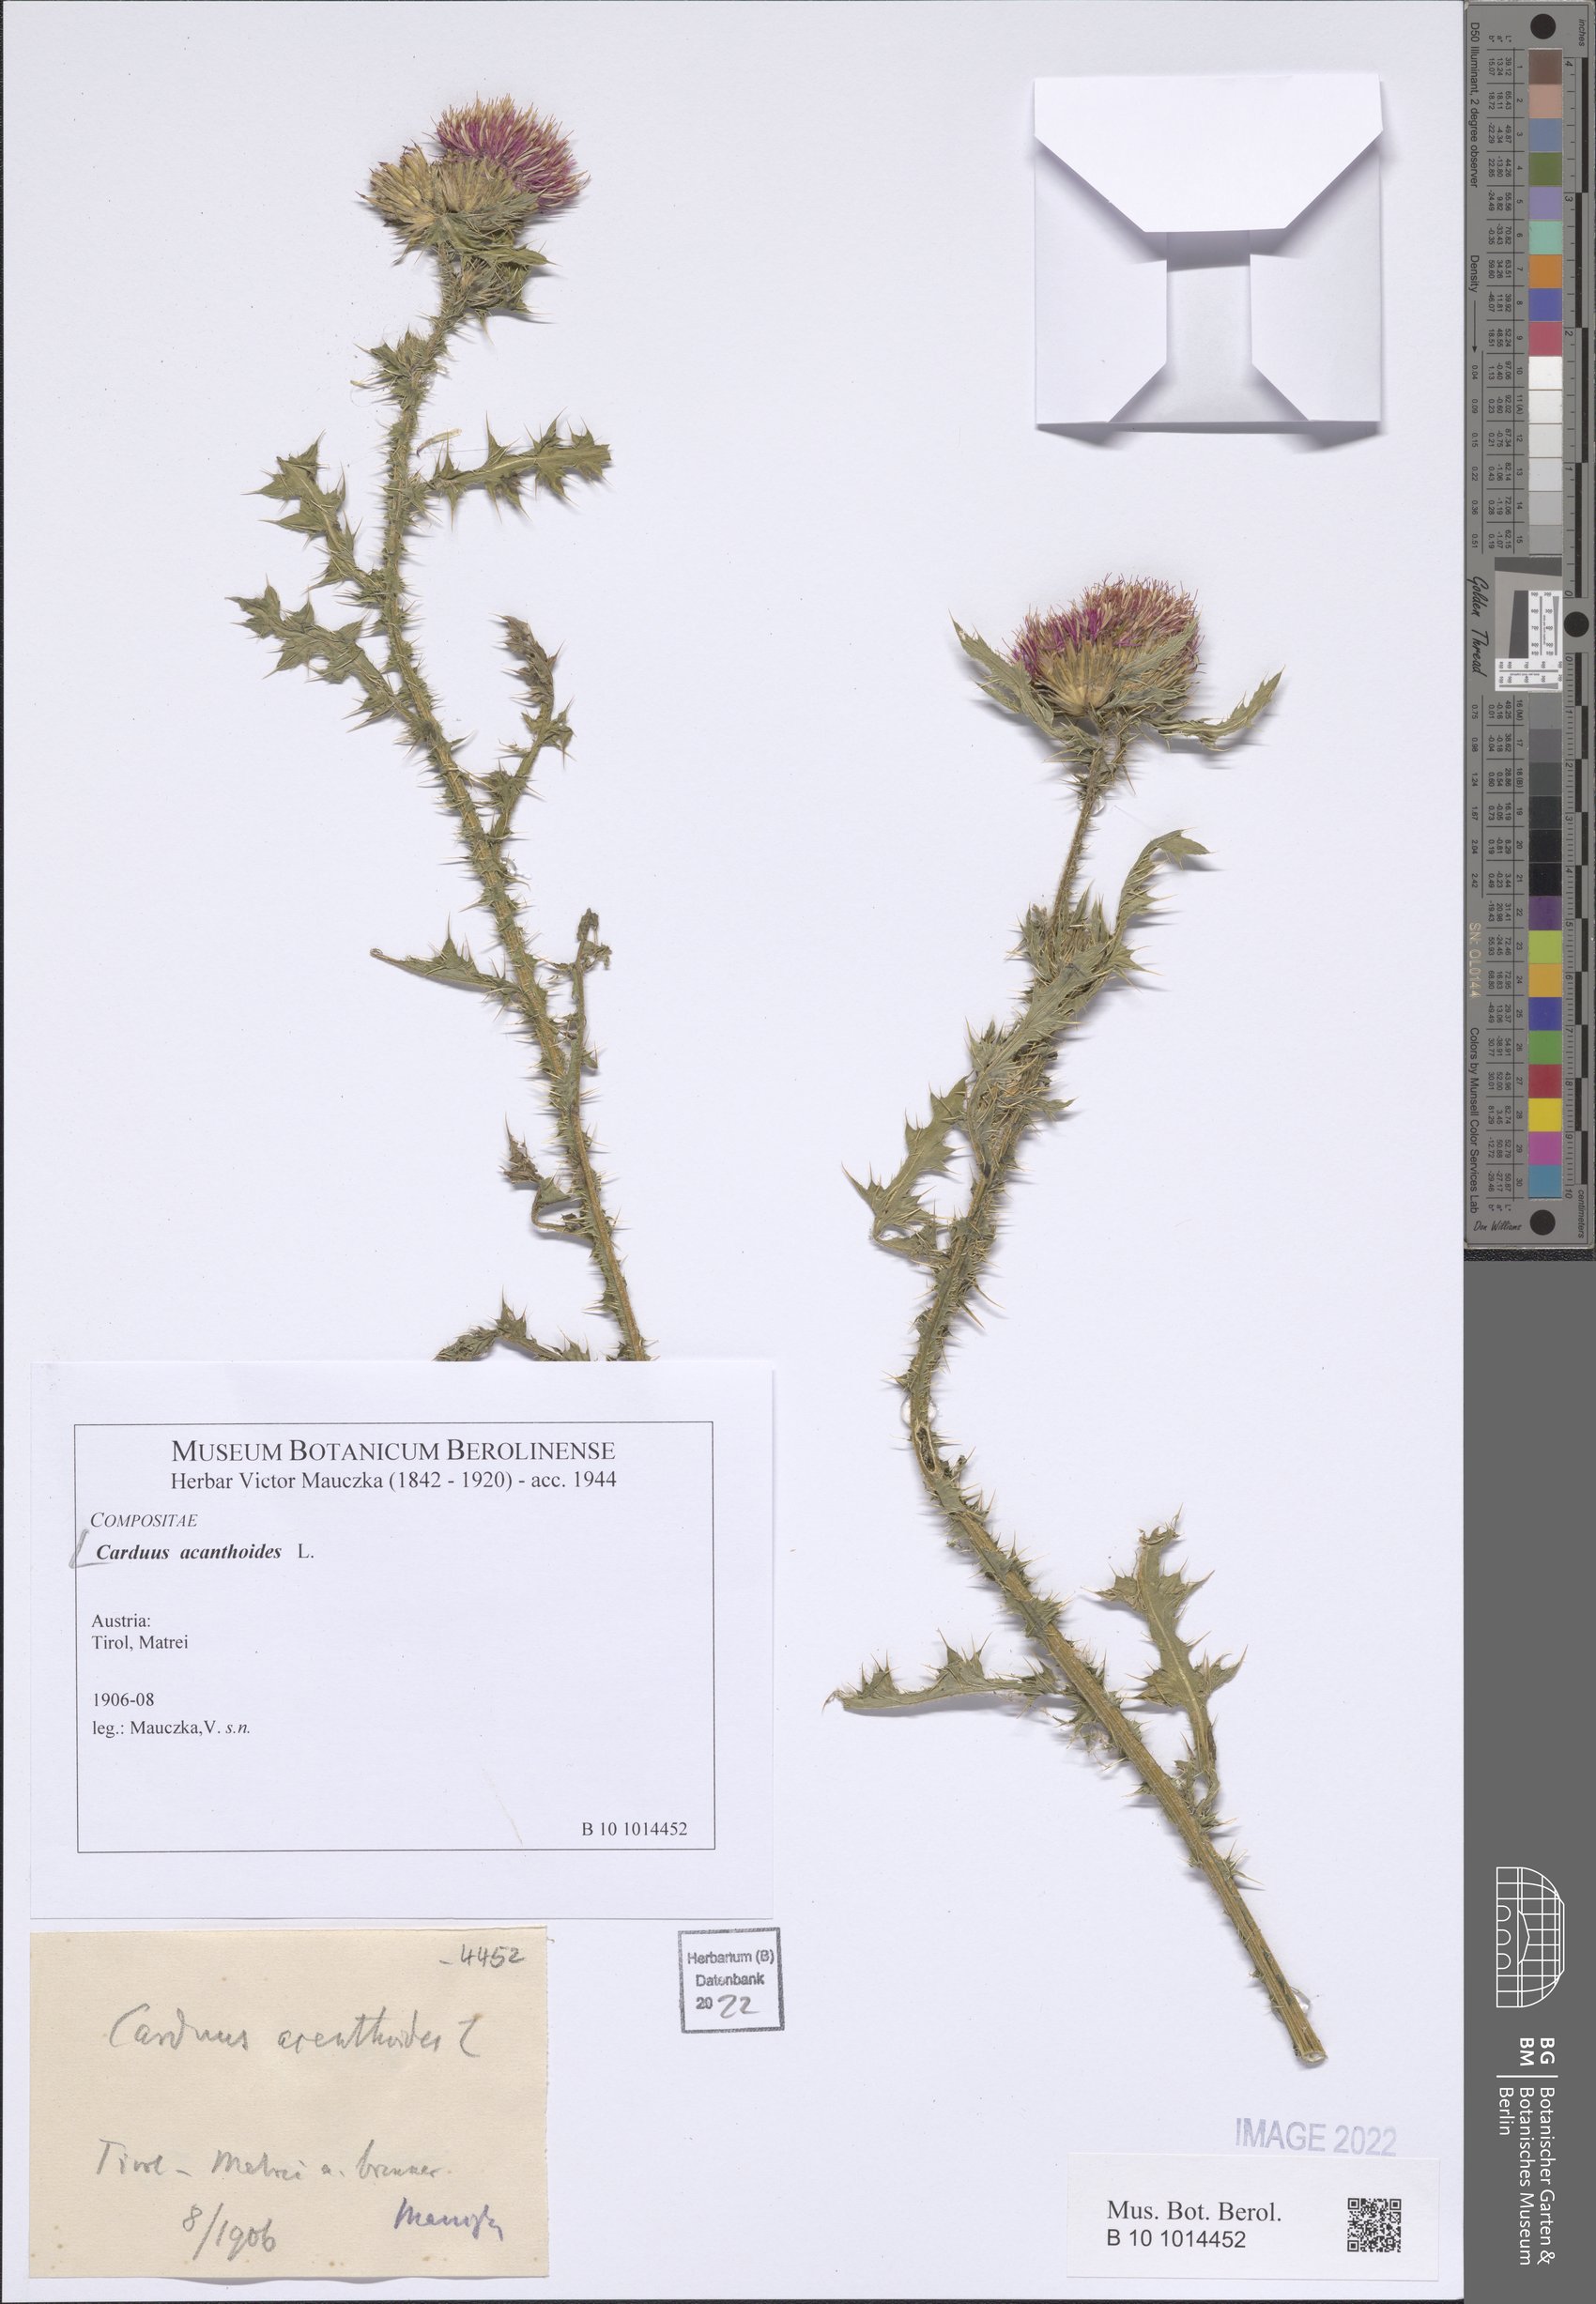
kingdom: Plantae
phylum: Tracheophyta
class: Magnoliopsida
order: Asterales
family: Asteraceae
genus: Carduus
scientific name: Carduus acanthoides
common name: Plumeless thistle
